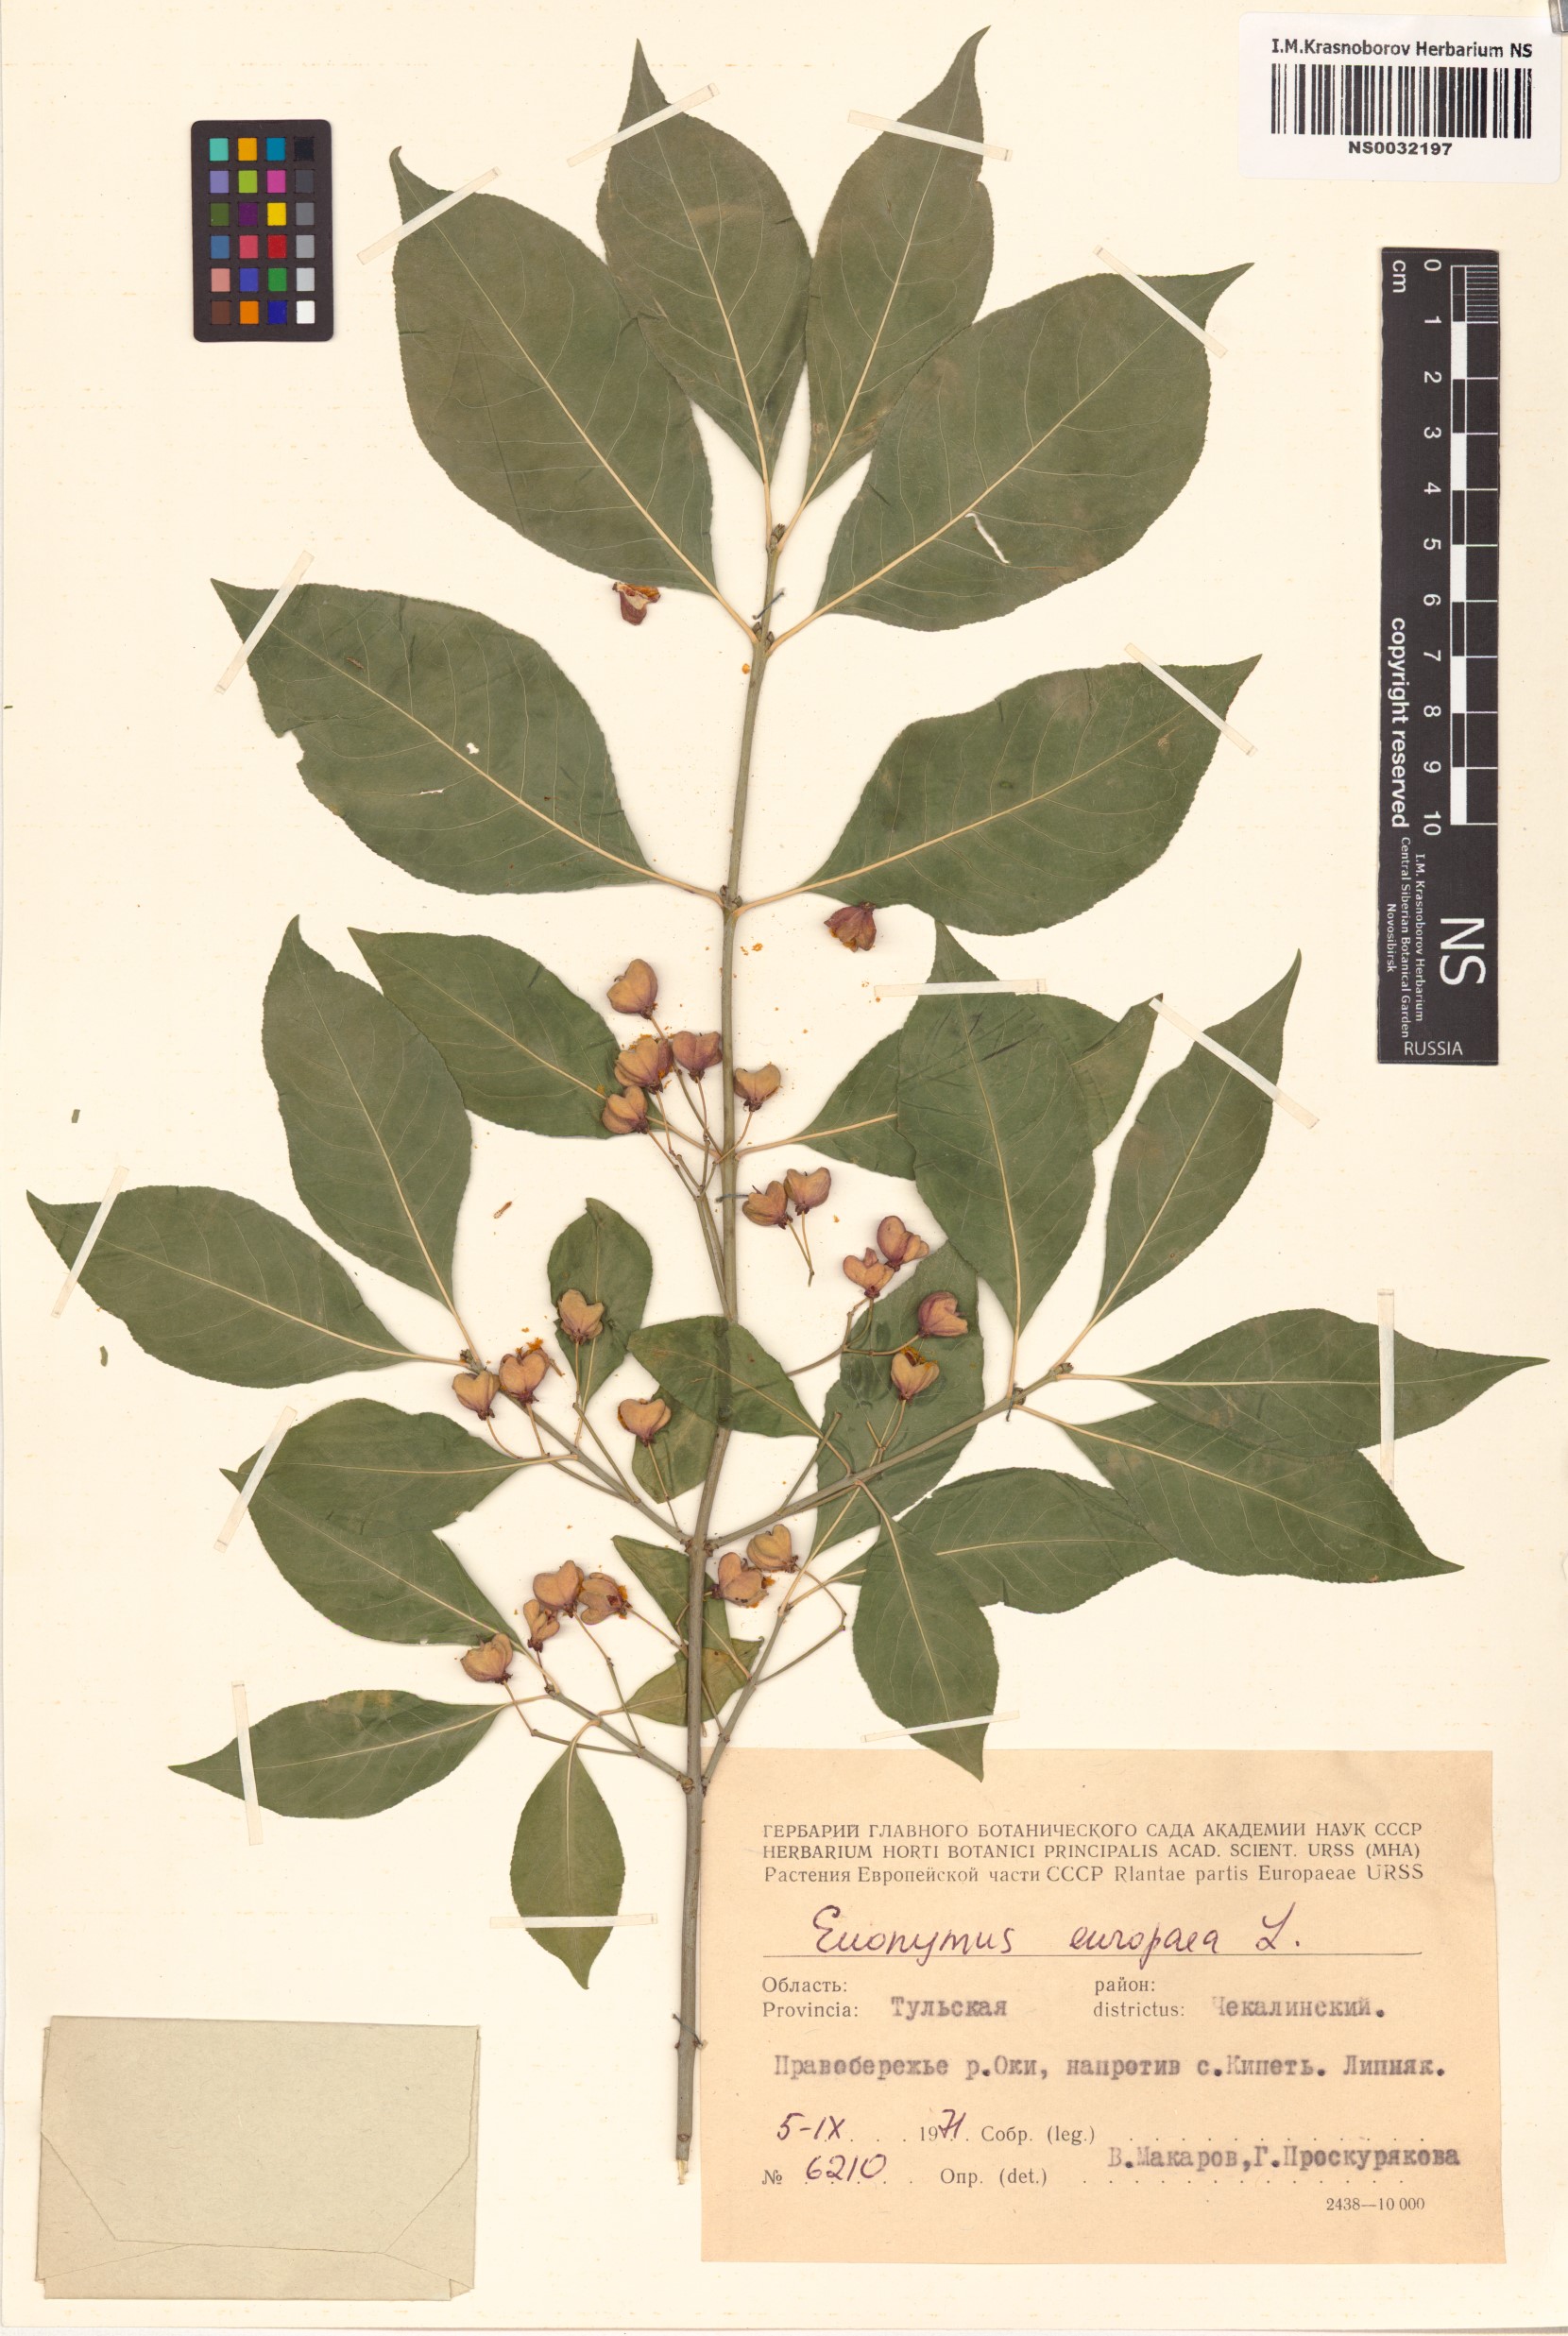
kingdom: Plantae
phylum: Tracheophyta
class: Magnoliopsida
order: Celastrales
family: Celastraceae
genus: Euonymus
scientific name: Euonymus europaeus
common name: Spindle
